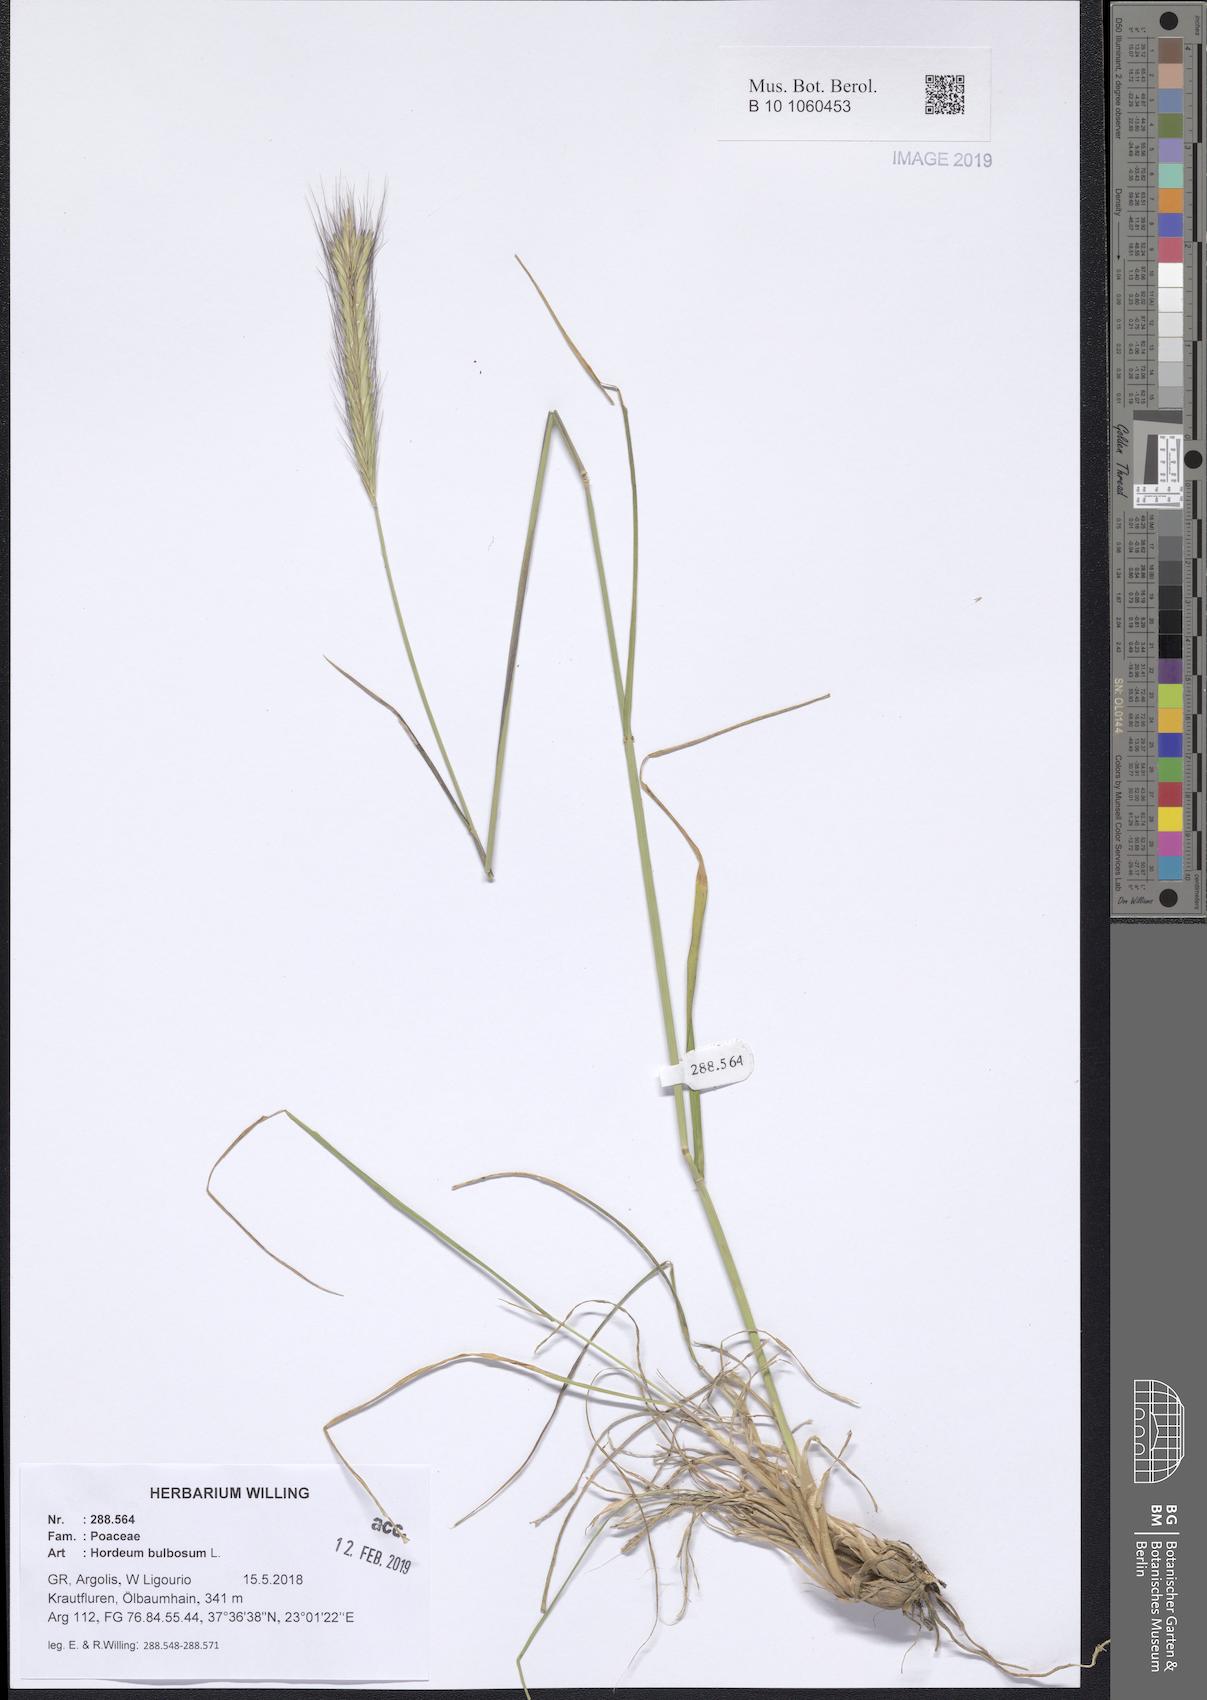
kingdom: Plantae
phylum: Tracheophyta
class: Liliopsida
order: Poales
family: Poaceae
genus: Hordeum
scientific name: Hordeum bulbosum
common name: Bulbous barley
